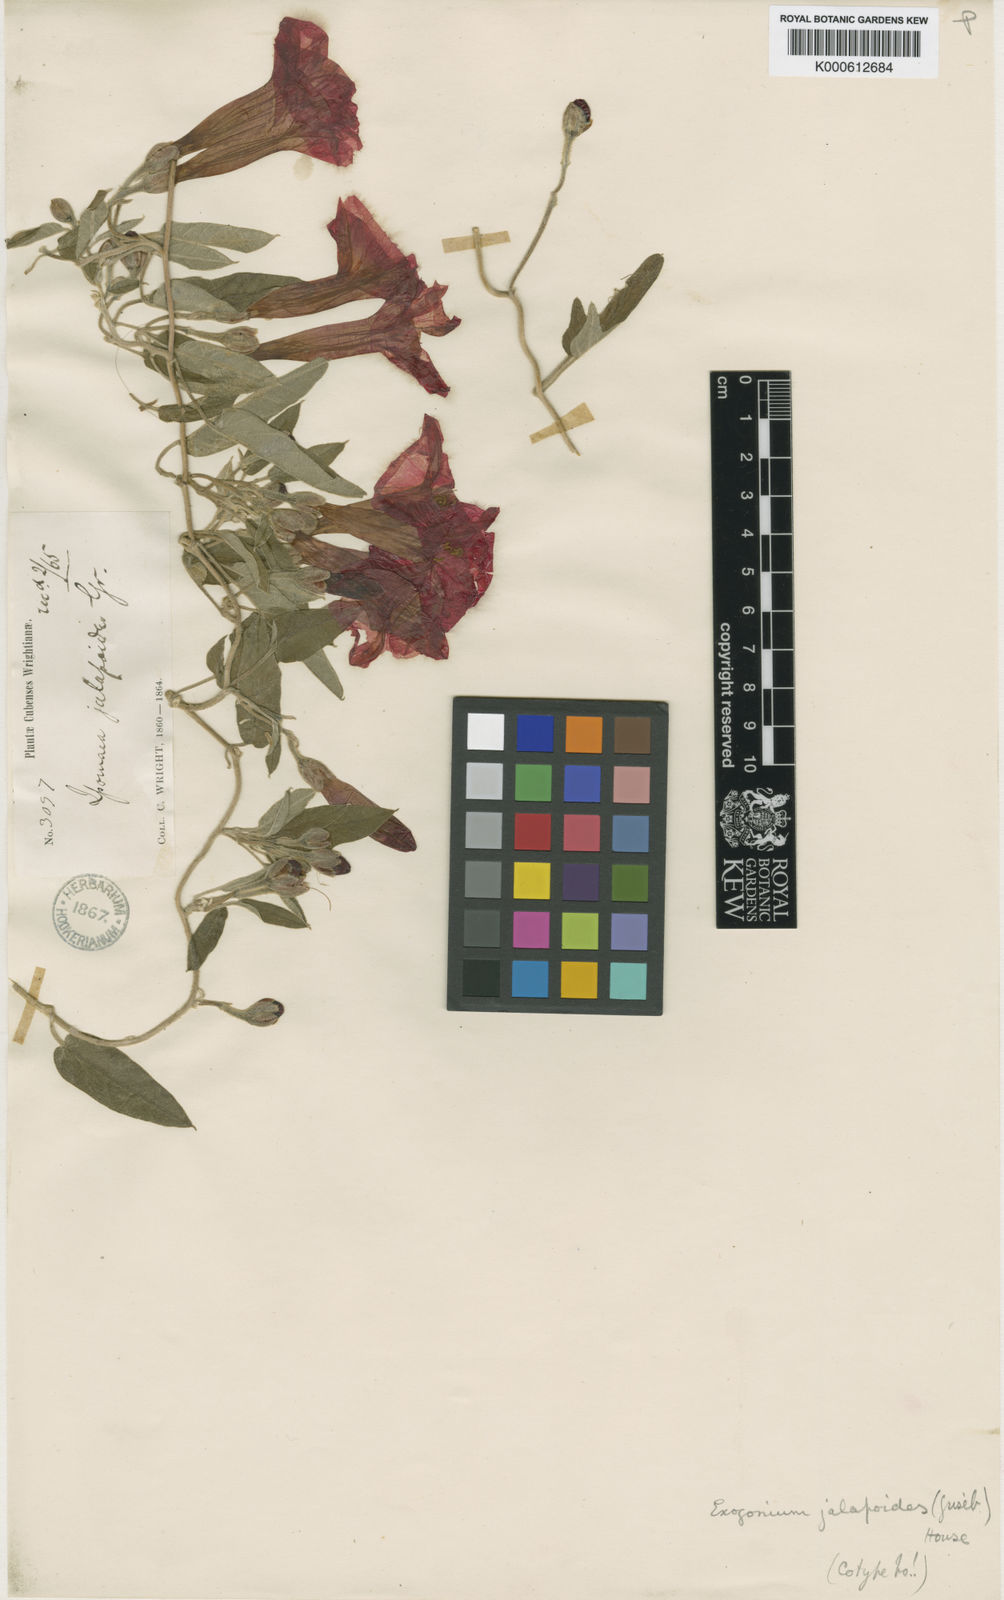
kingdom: Plantae
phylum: Tracheophyta
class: Magnoliopsida
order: Solanales
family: Convolvulaceae
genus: Ipomoea
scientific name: Ipomoea jalapoides
